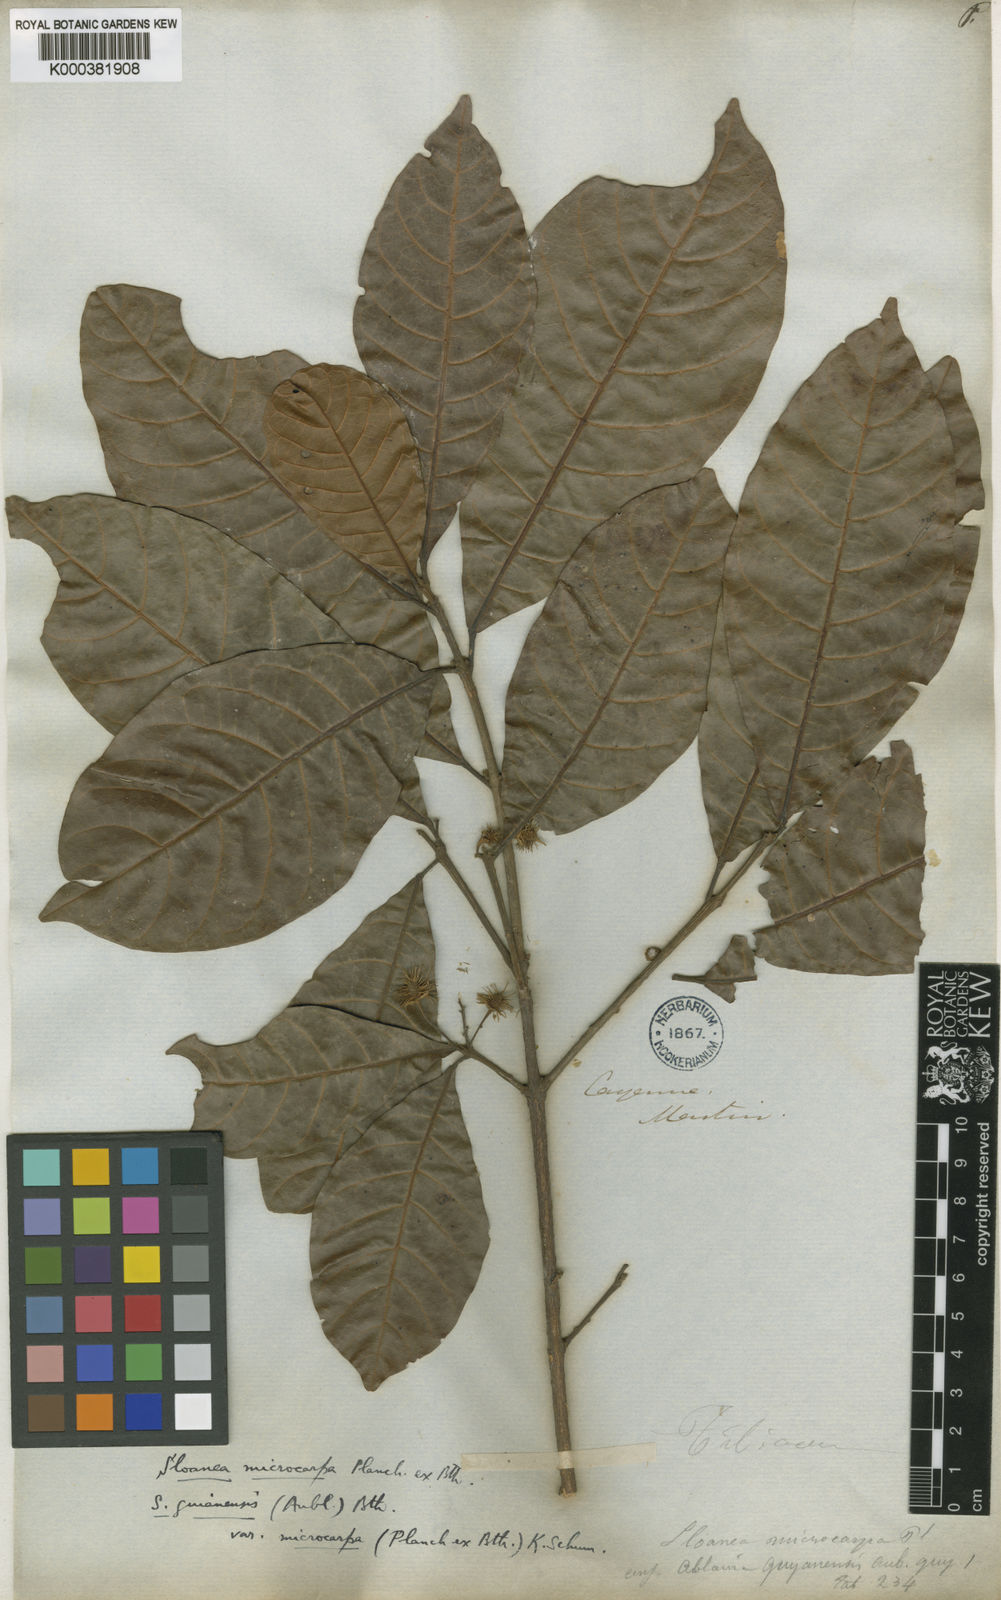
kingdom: Plantae
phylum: Tracheophyta
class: Magnoliopsida
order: Oxalidales
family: Elaeocarpaceae
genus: Sloanea
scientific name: Sloanea guianensis
